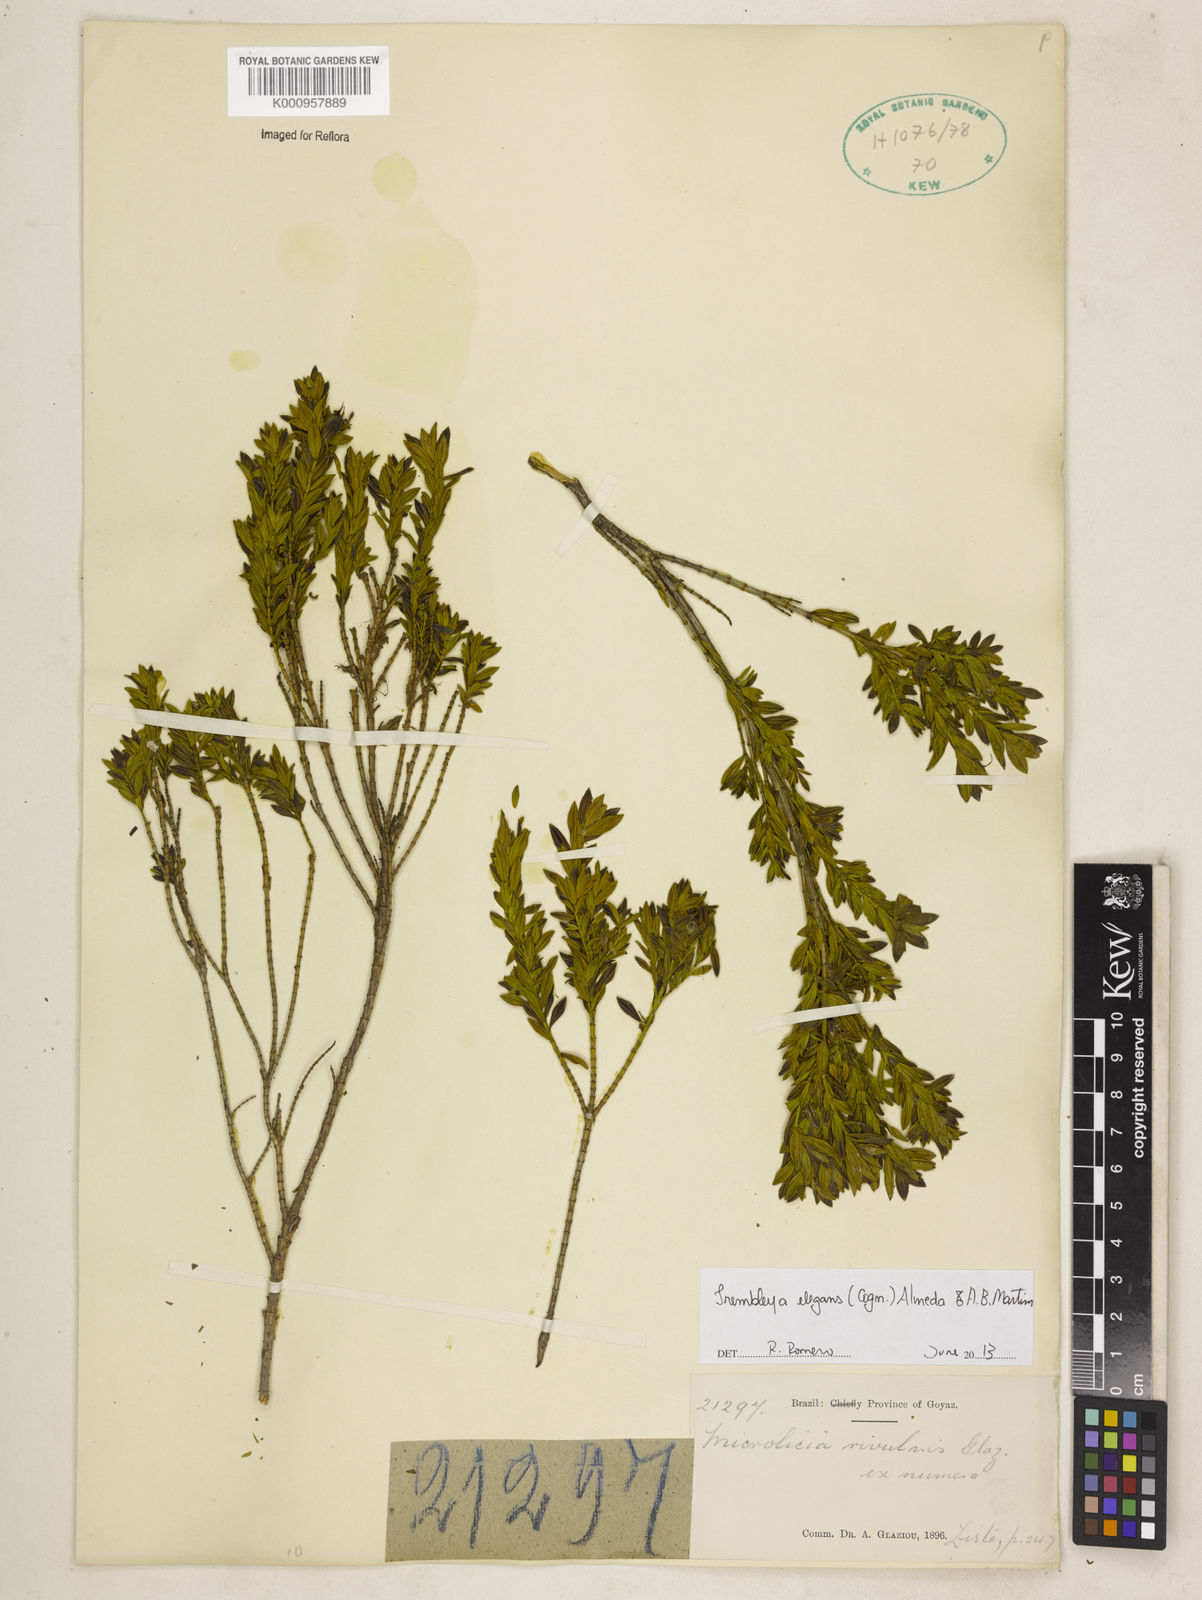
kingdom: Plantae
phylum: Tracheophyta
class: Magnoliopsida
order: Myrtales
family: Melastomataceae
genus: Microlicia
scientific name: Microlicia speciosa
